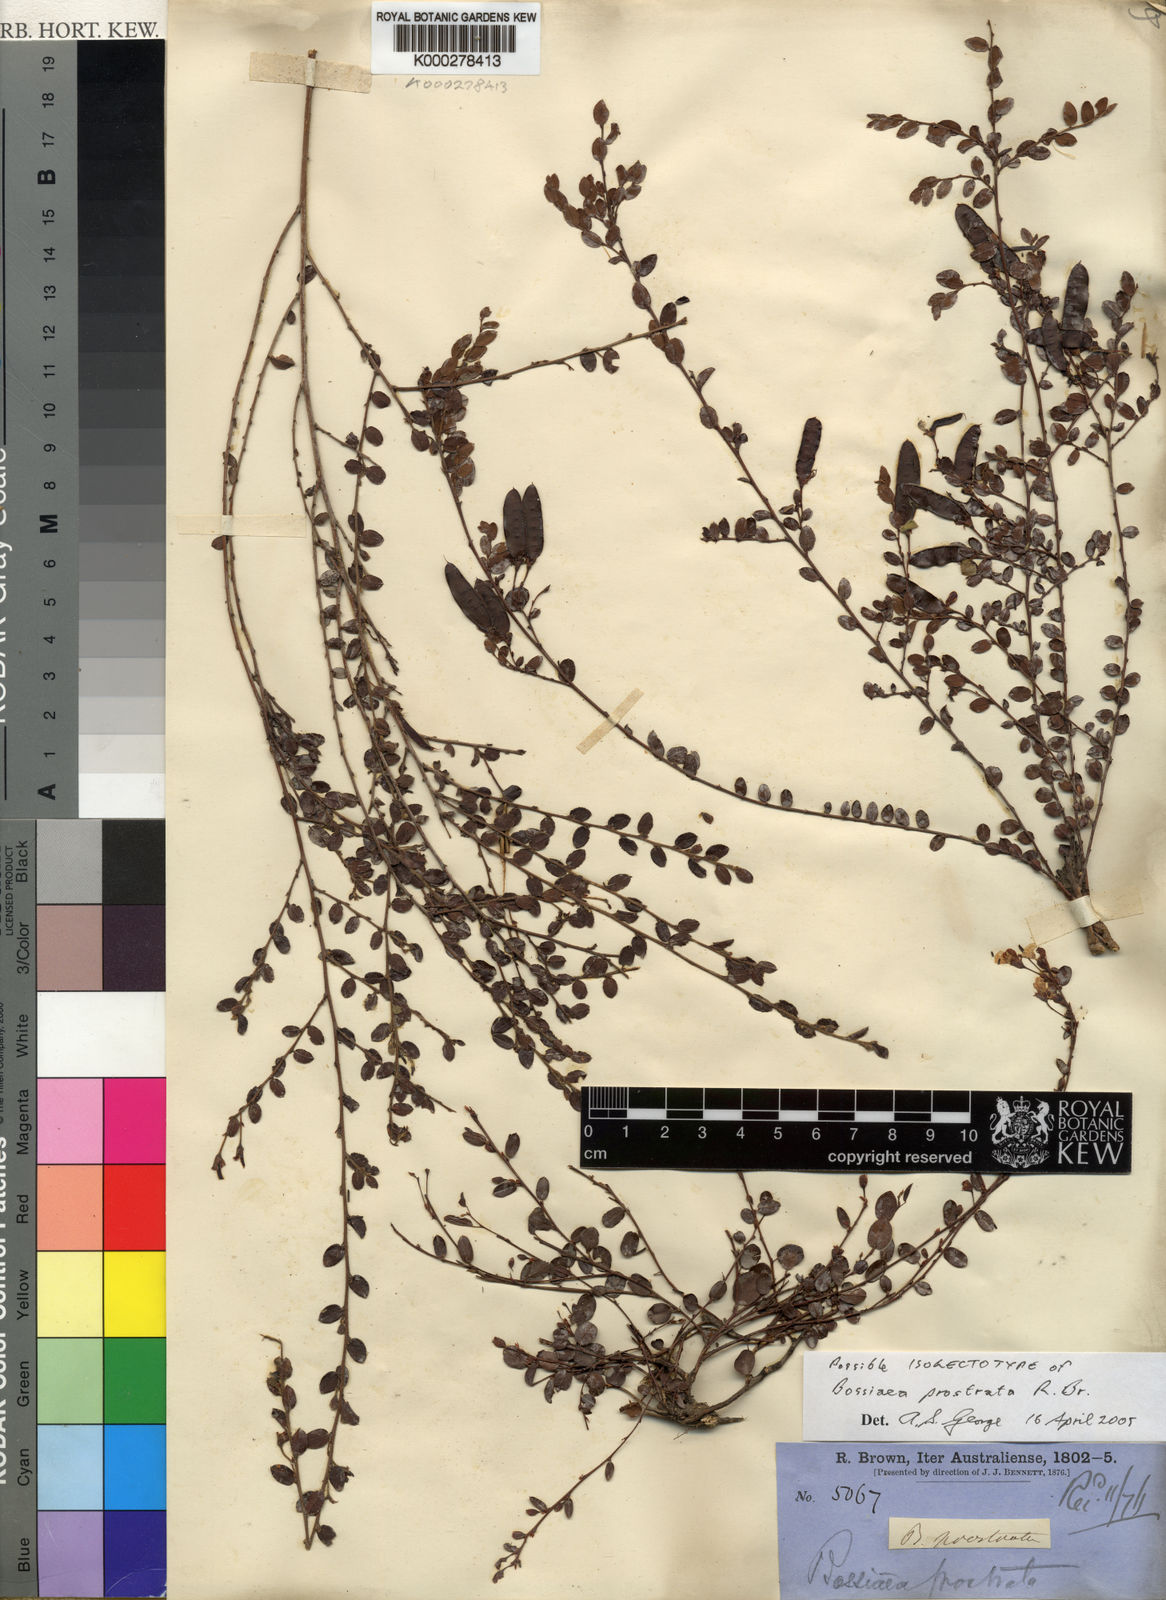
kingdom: Plantae
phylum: Tracheophyta
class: Magnoliopsida
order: Fabales
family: Fabaceae
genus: Bossiaea
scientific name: Bossiaea prostrata
